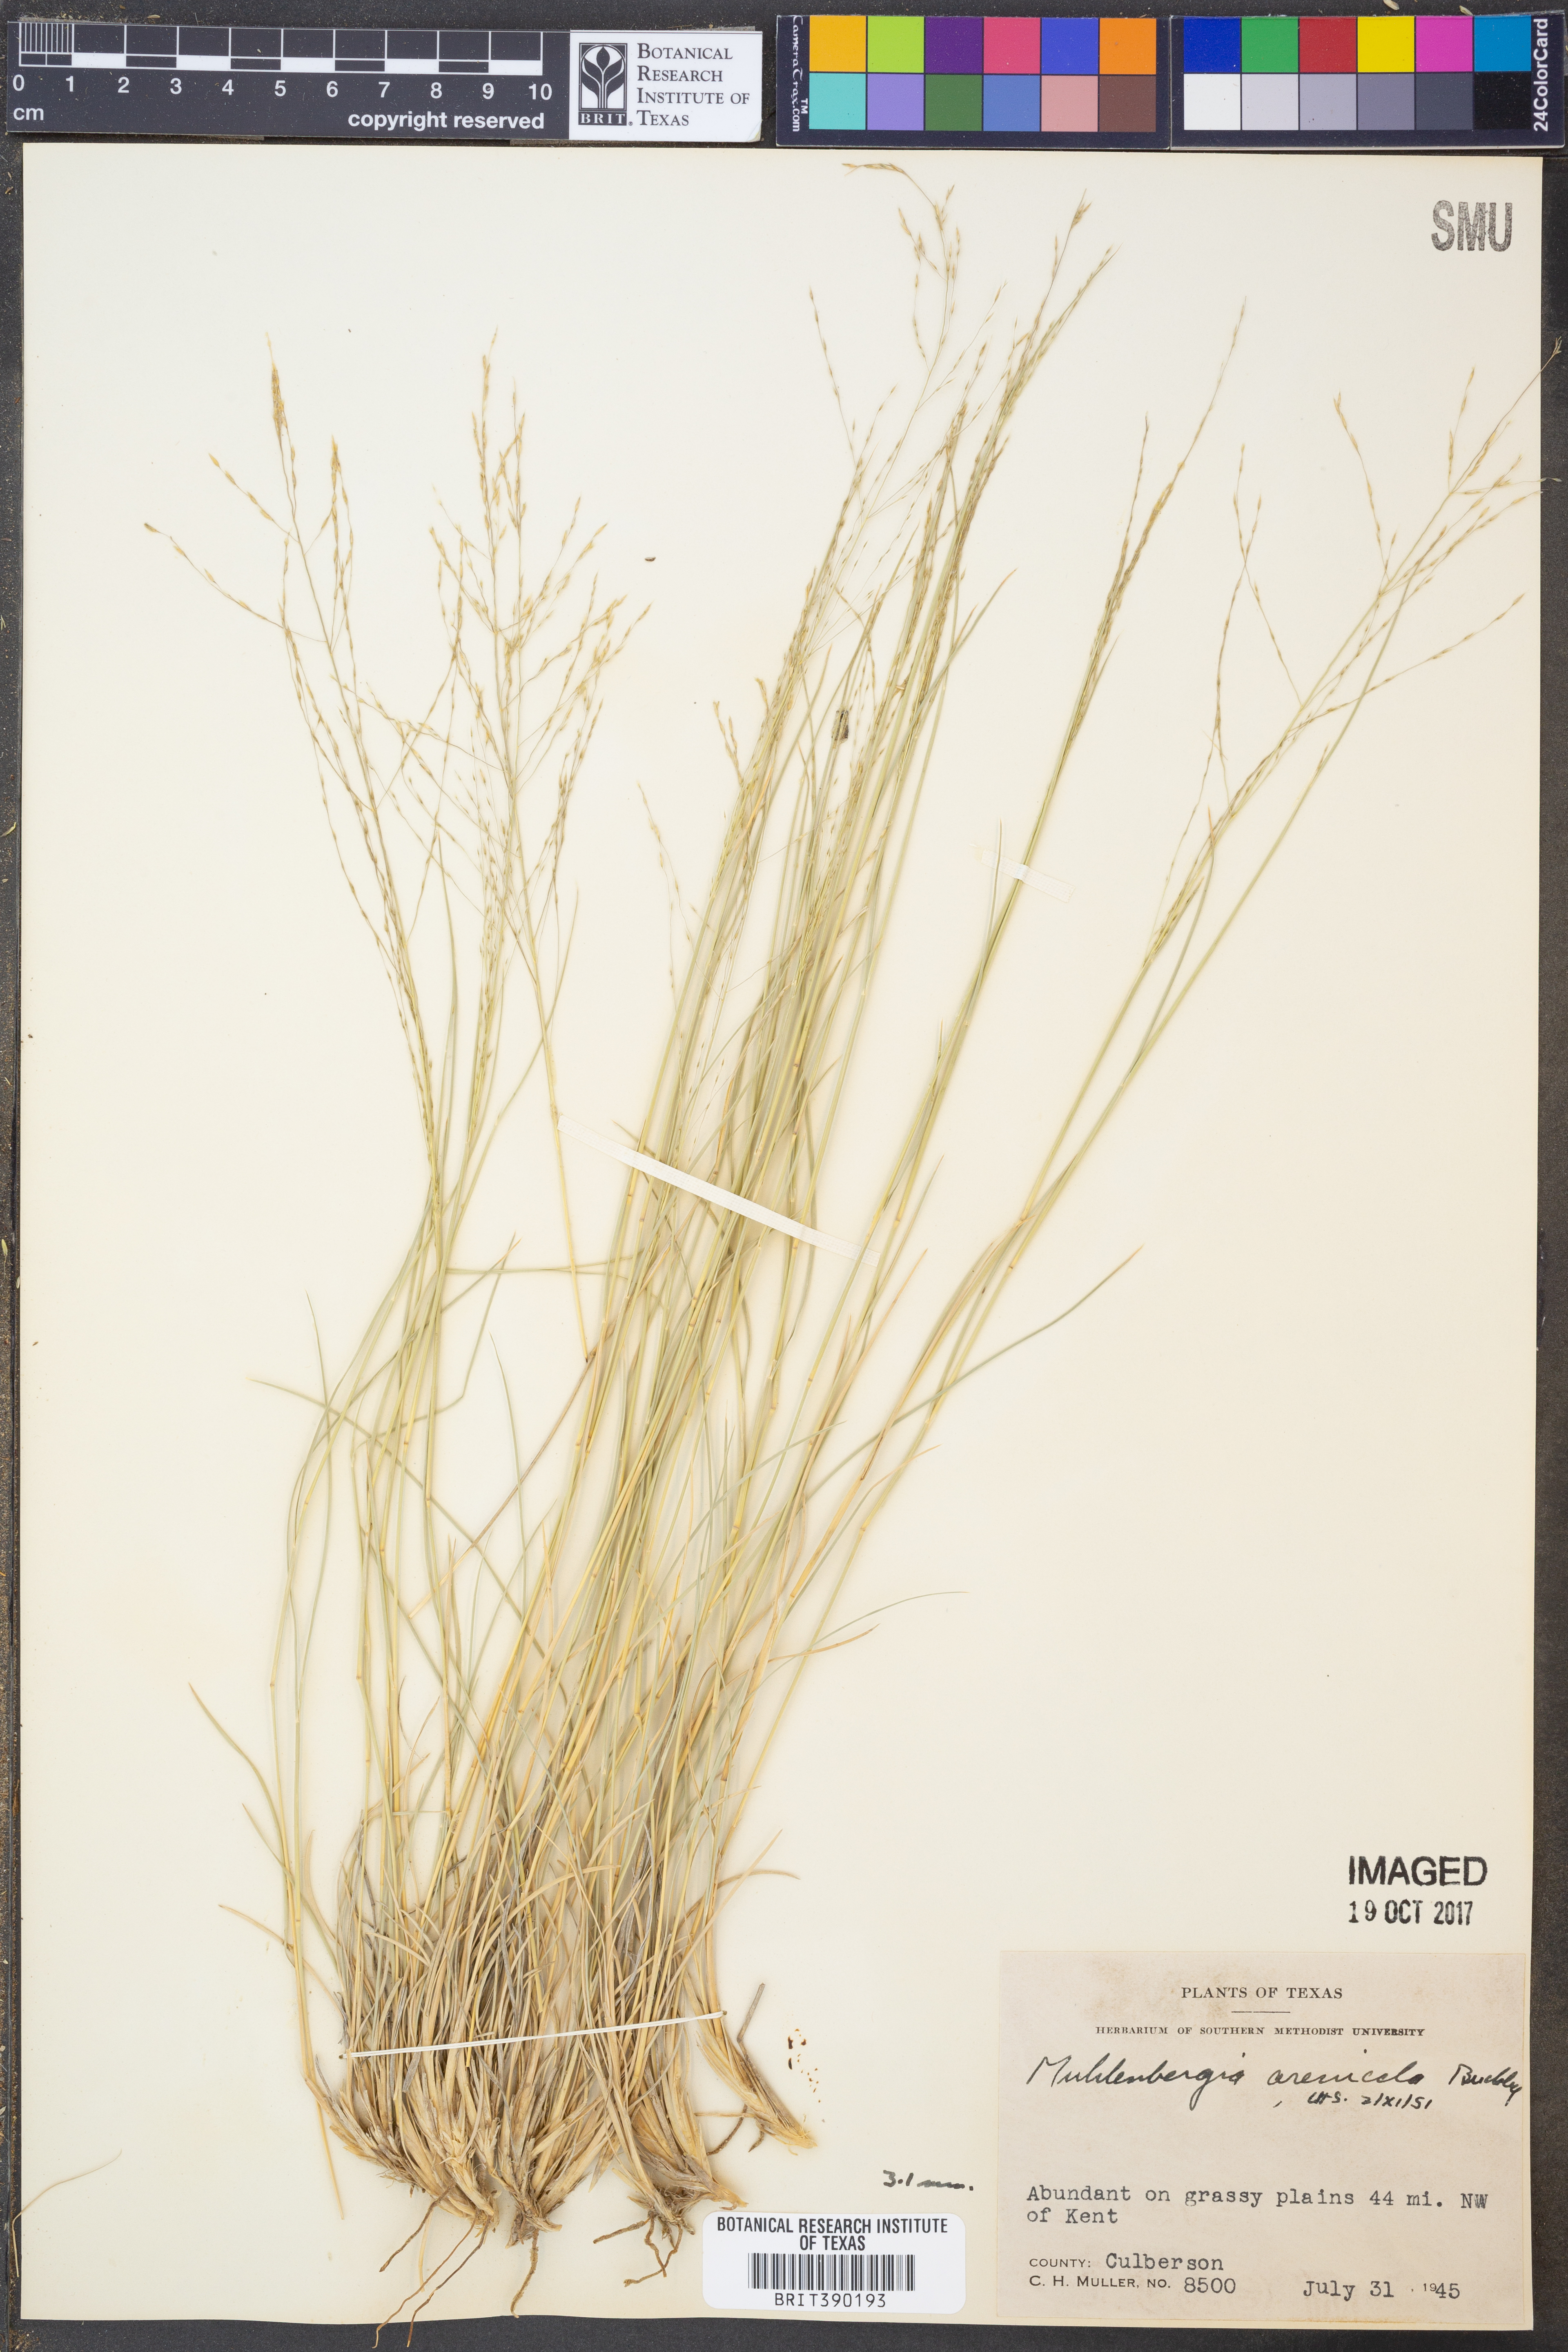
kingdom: Plantae
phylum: Tracheophyta
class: Liliopsida
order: Poales
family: Poaceae
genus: Muhlenbergia
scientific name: Muhlenbergia arenicola
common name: Sand muhly
